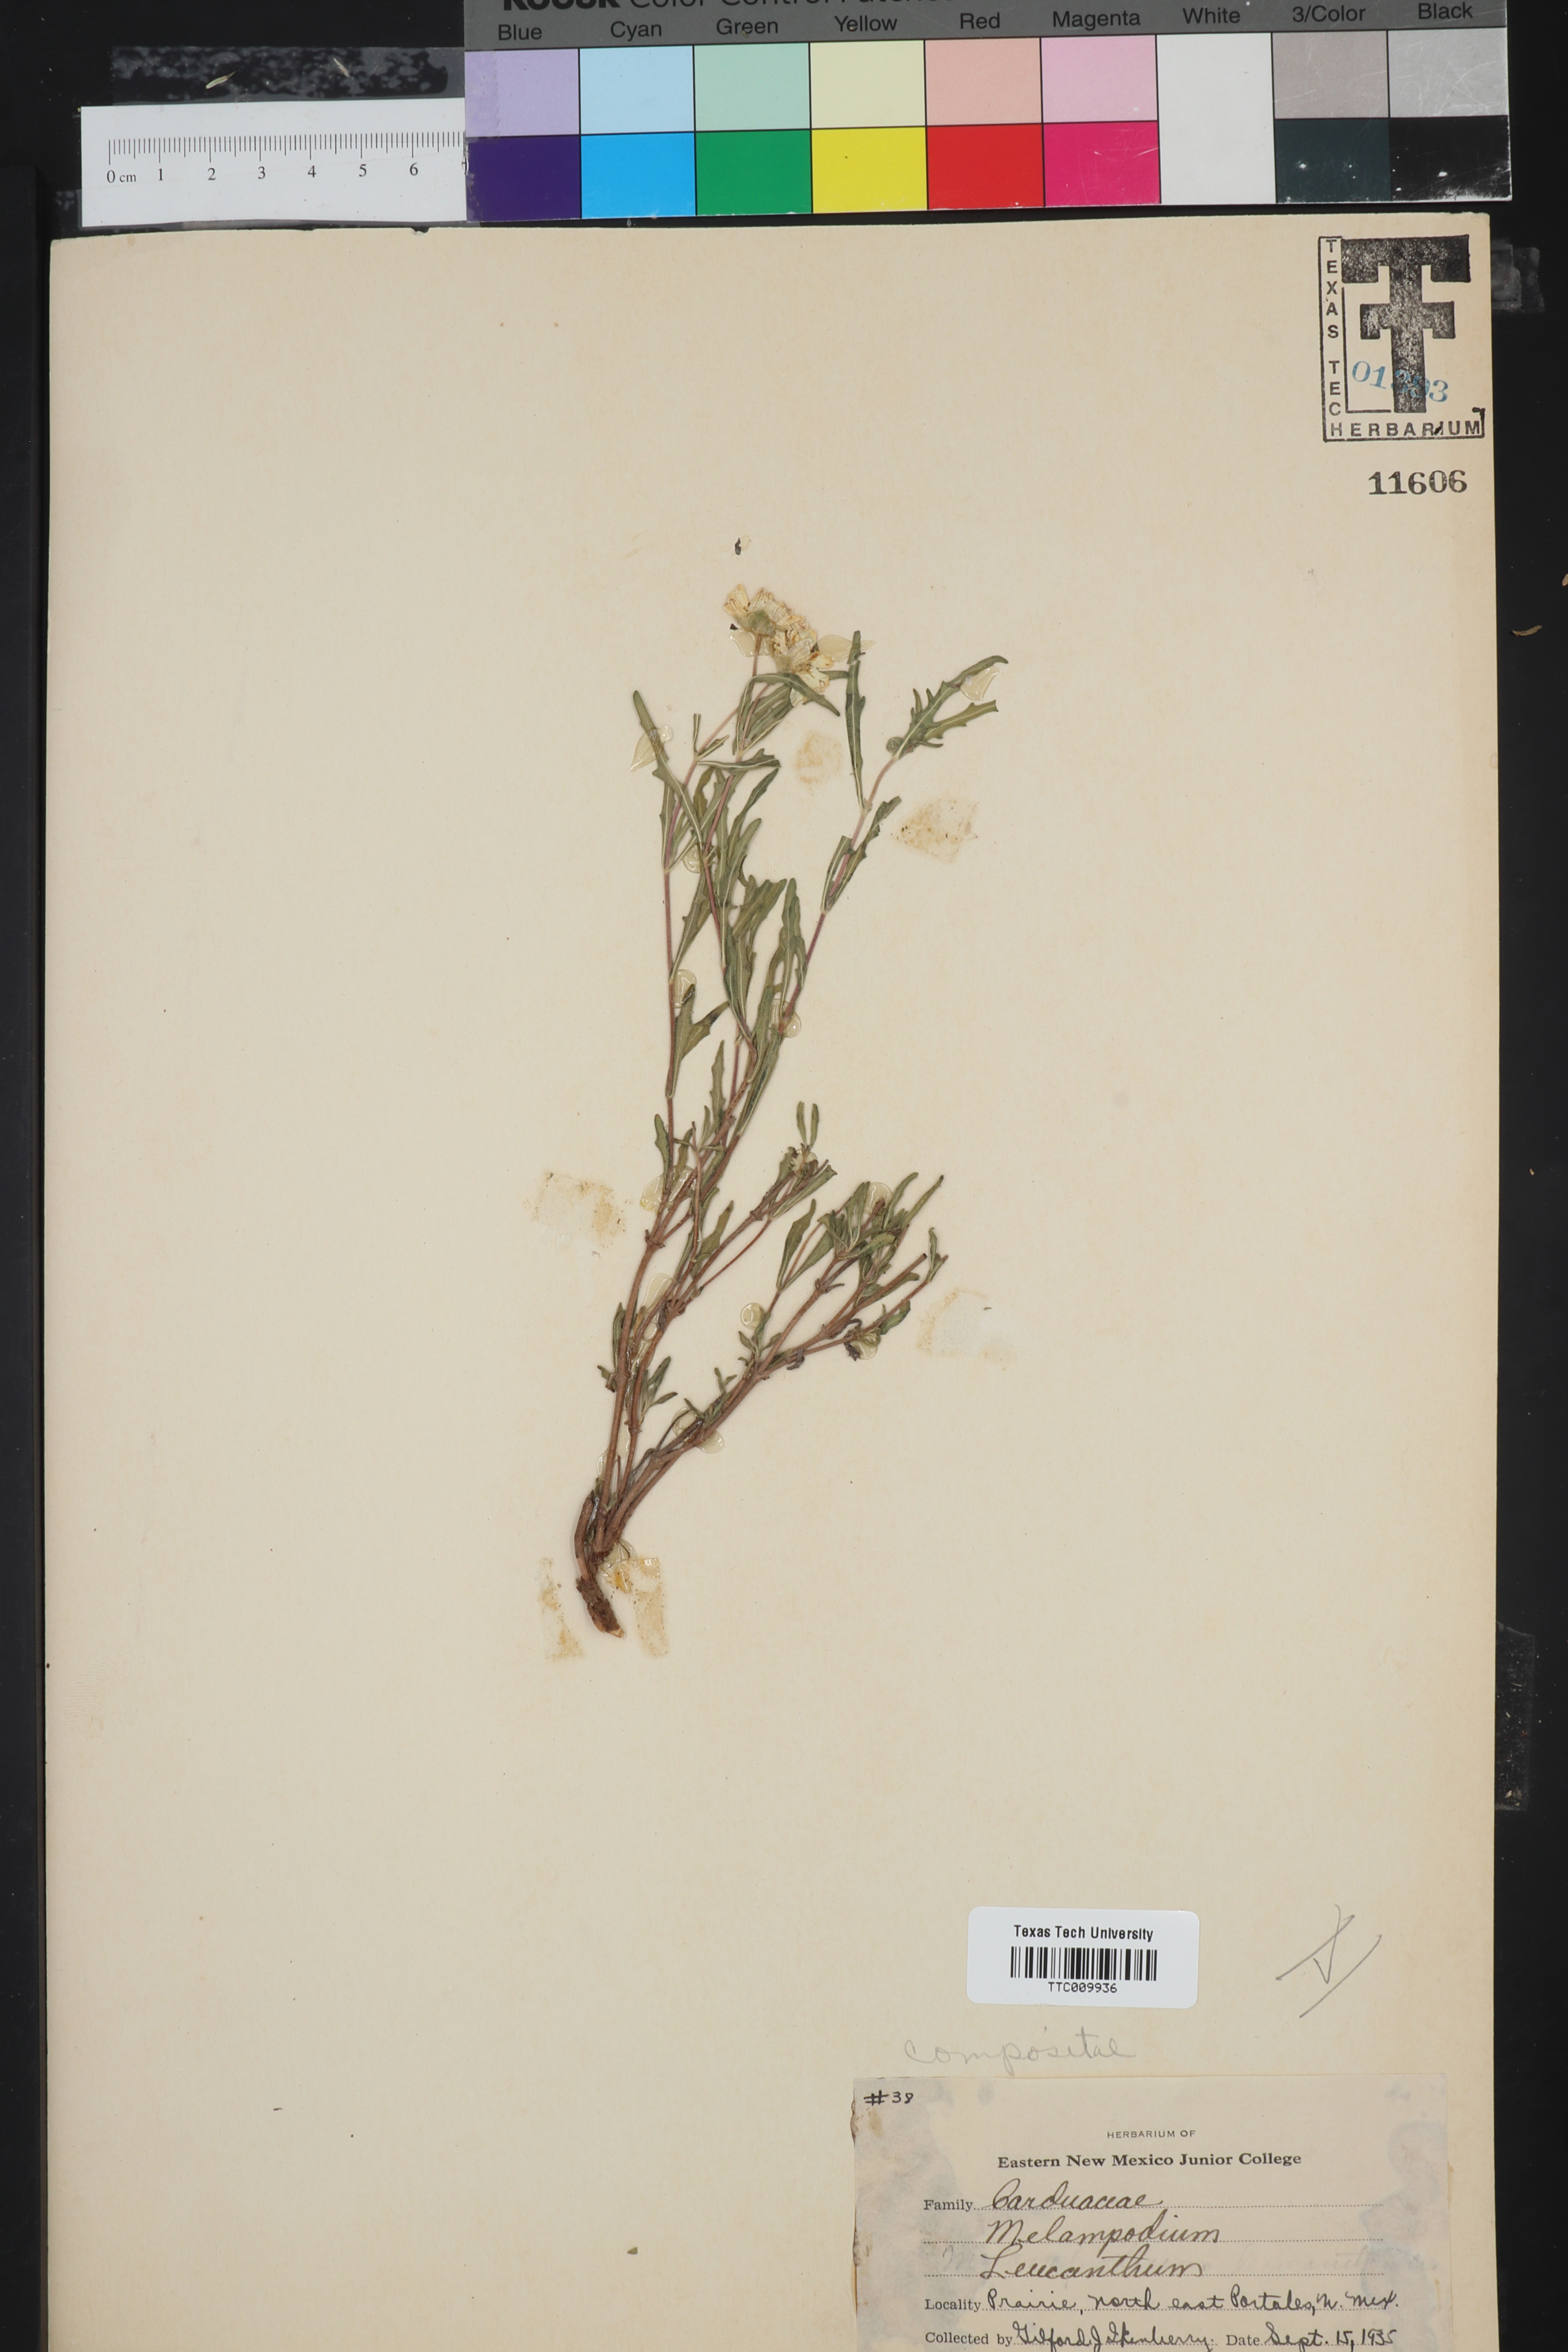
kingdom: Plantae
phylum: Tracheophyta
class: Magnoliopsida
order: Asterales
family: Asteraceae
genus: Melampodium
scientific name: Melampodium leucanthum
